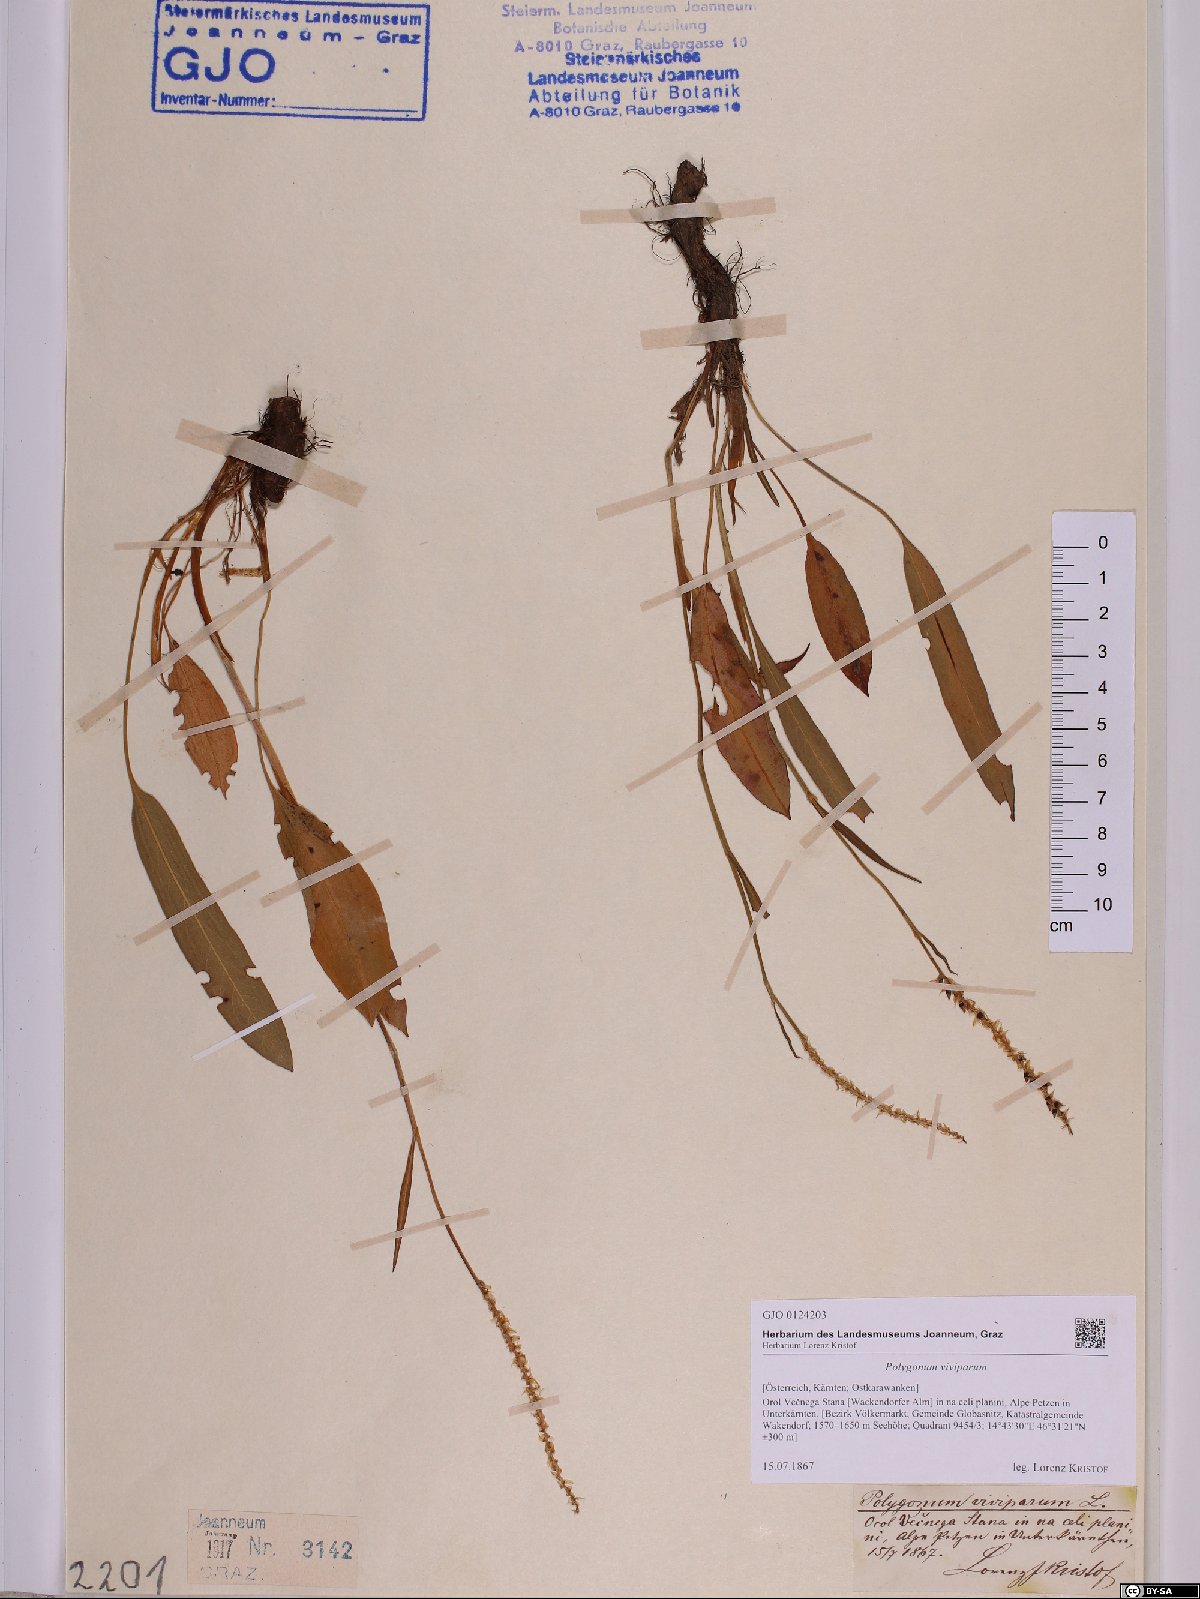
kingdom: Plantae
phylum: Tracheophyta
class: Magnoliopsida
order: Caryophyllales
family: Polygonaceae
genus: Bistorta
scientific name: Bistorta vivipara
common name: Alpine bistort
